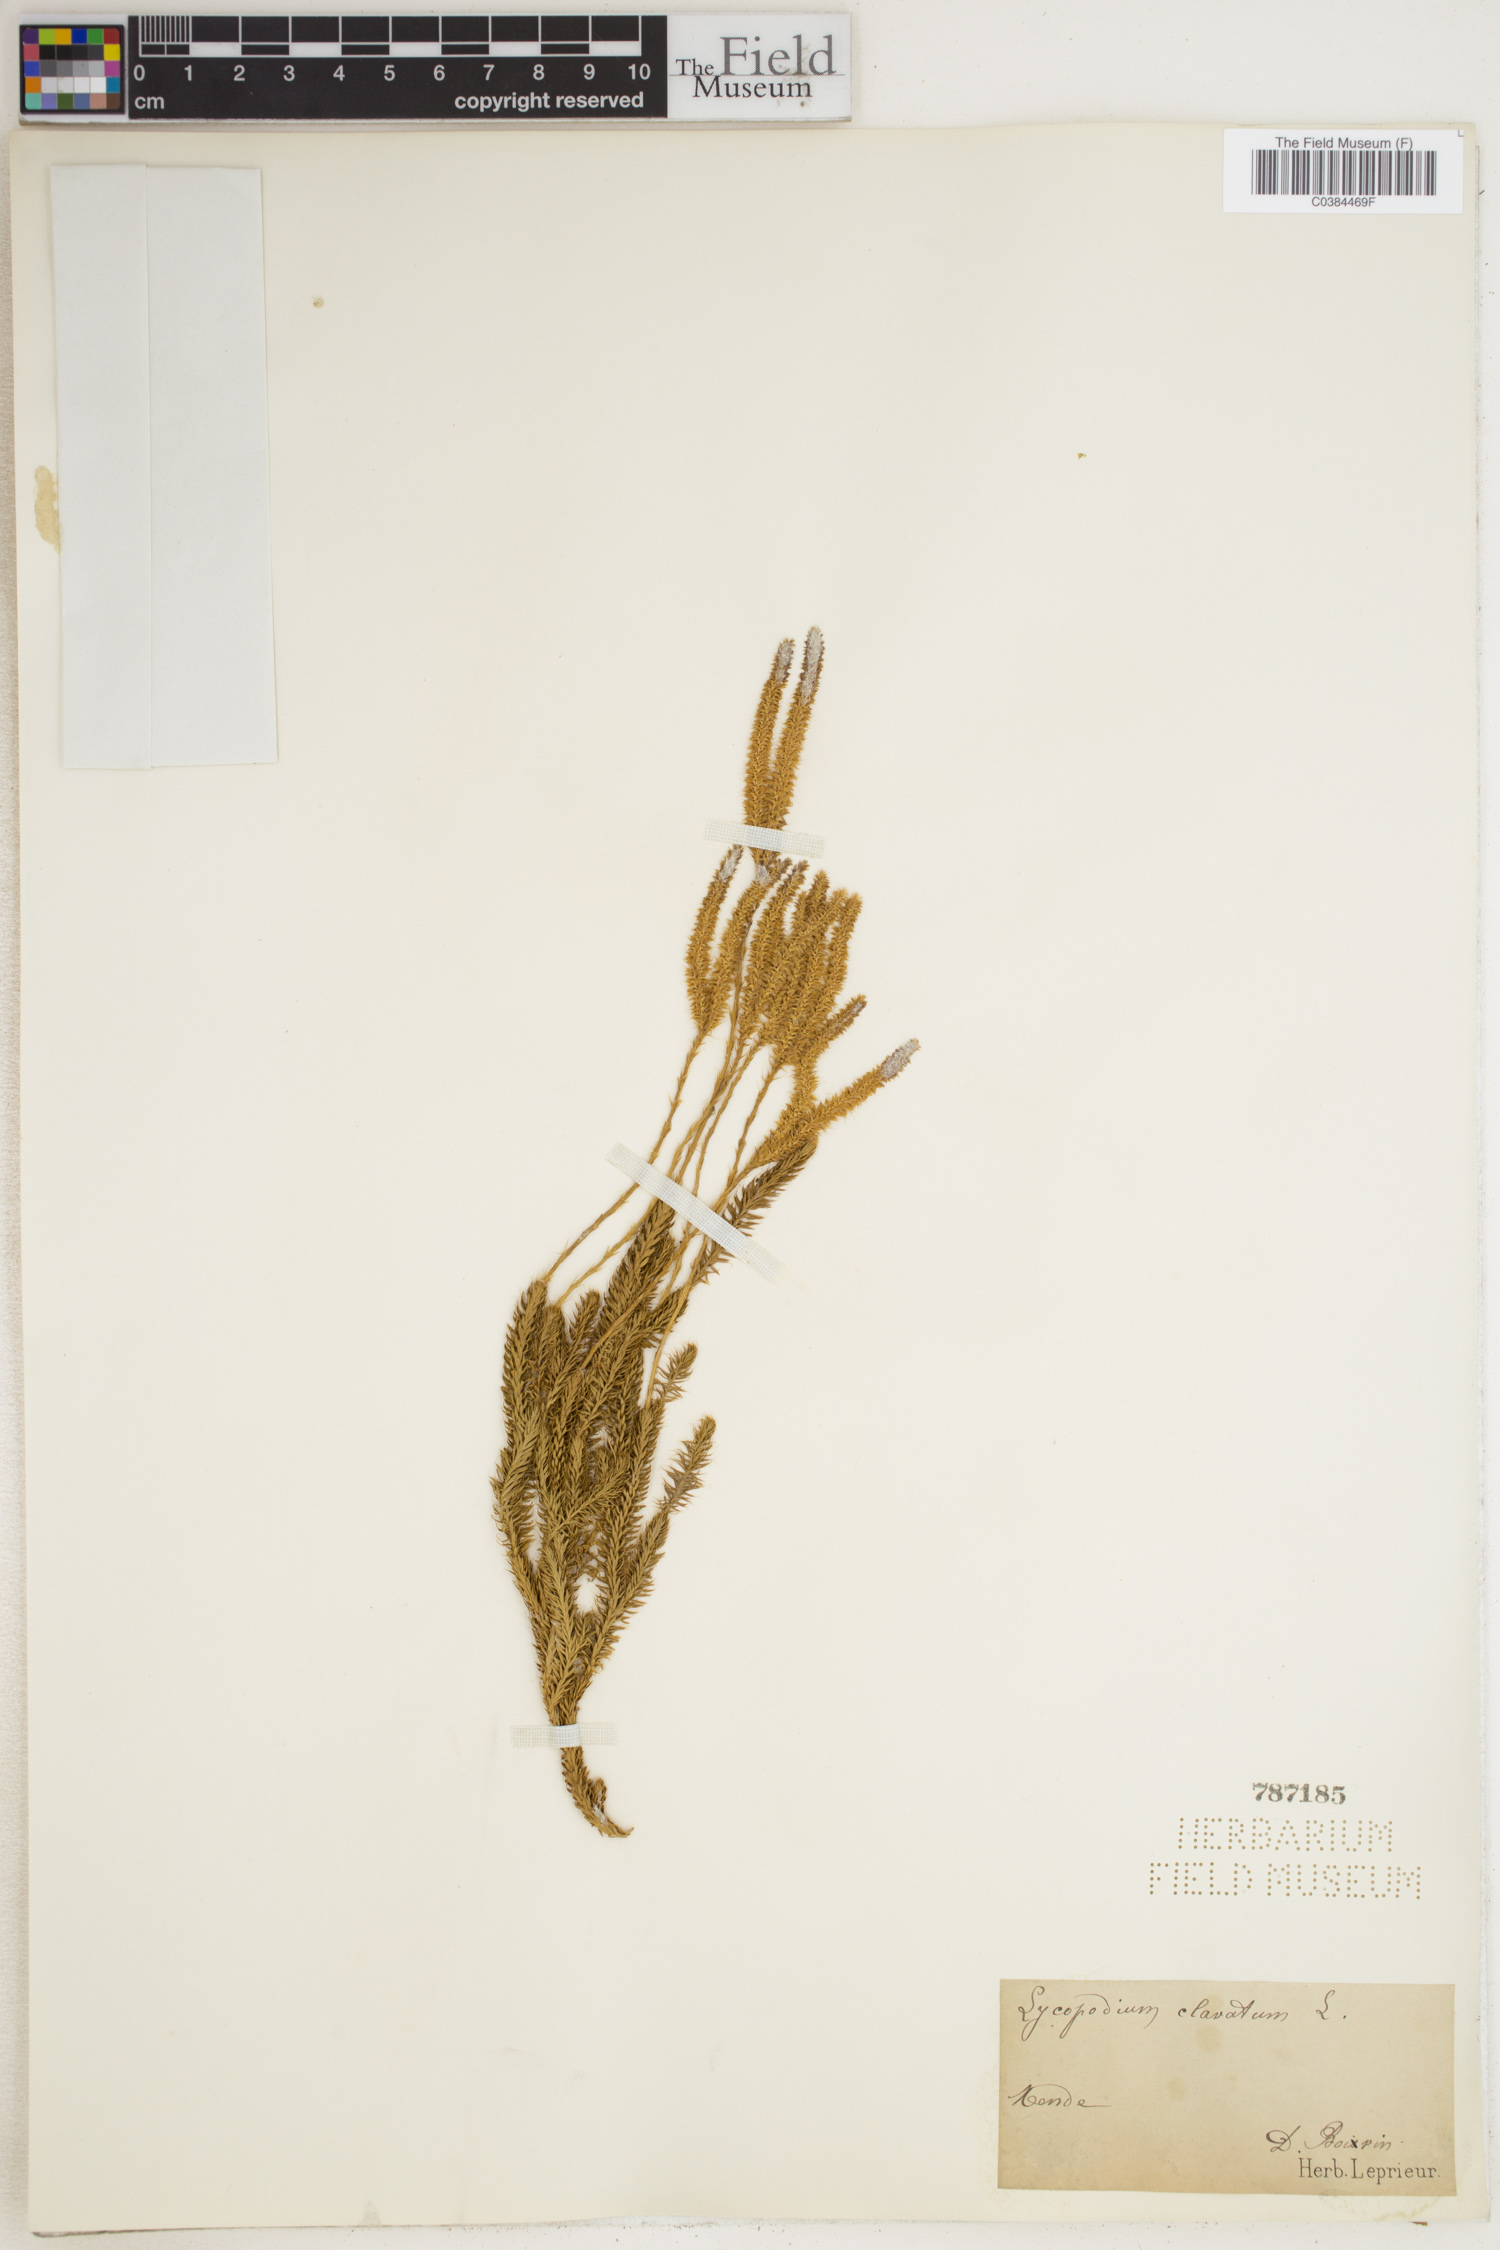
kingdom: Plantae
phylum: Tracheophyta
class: Lycopodiopsida
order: Lycopodiales
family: Lycopodiaceae
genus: Lycopodium
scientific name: Lycopodium clavatum
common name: Stag's-horn clubmoss
